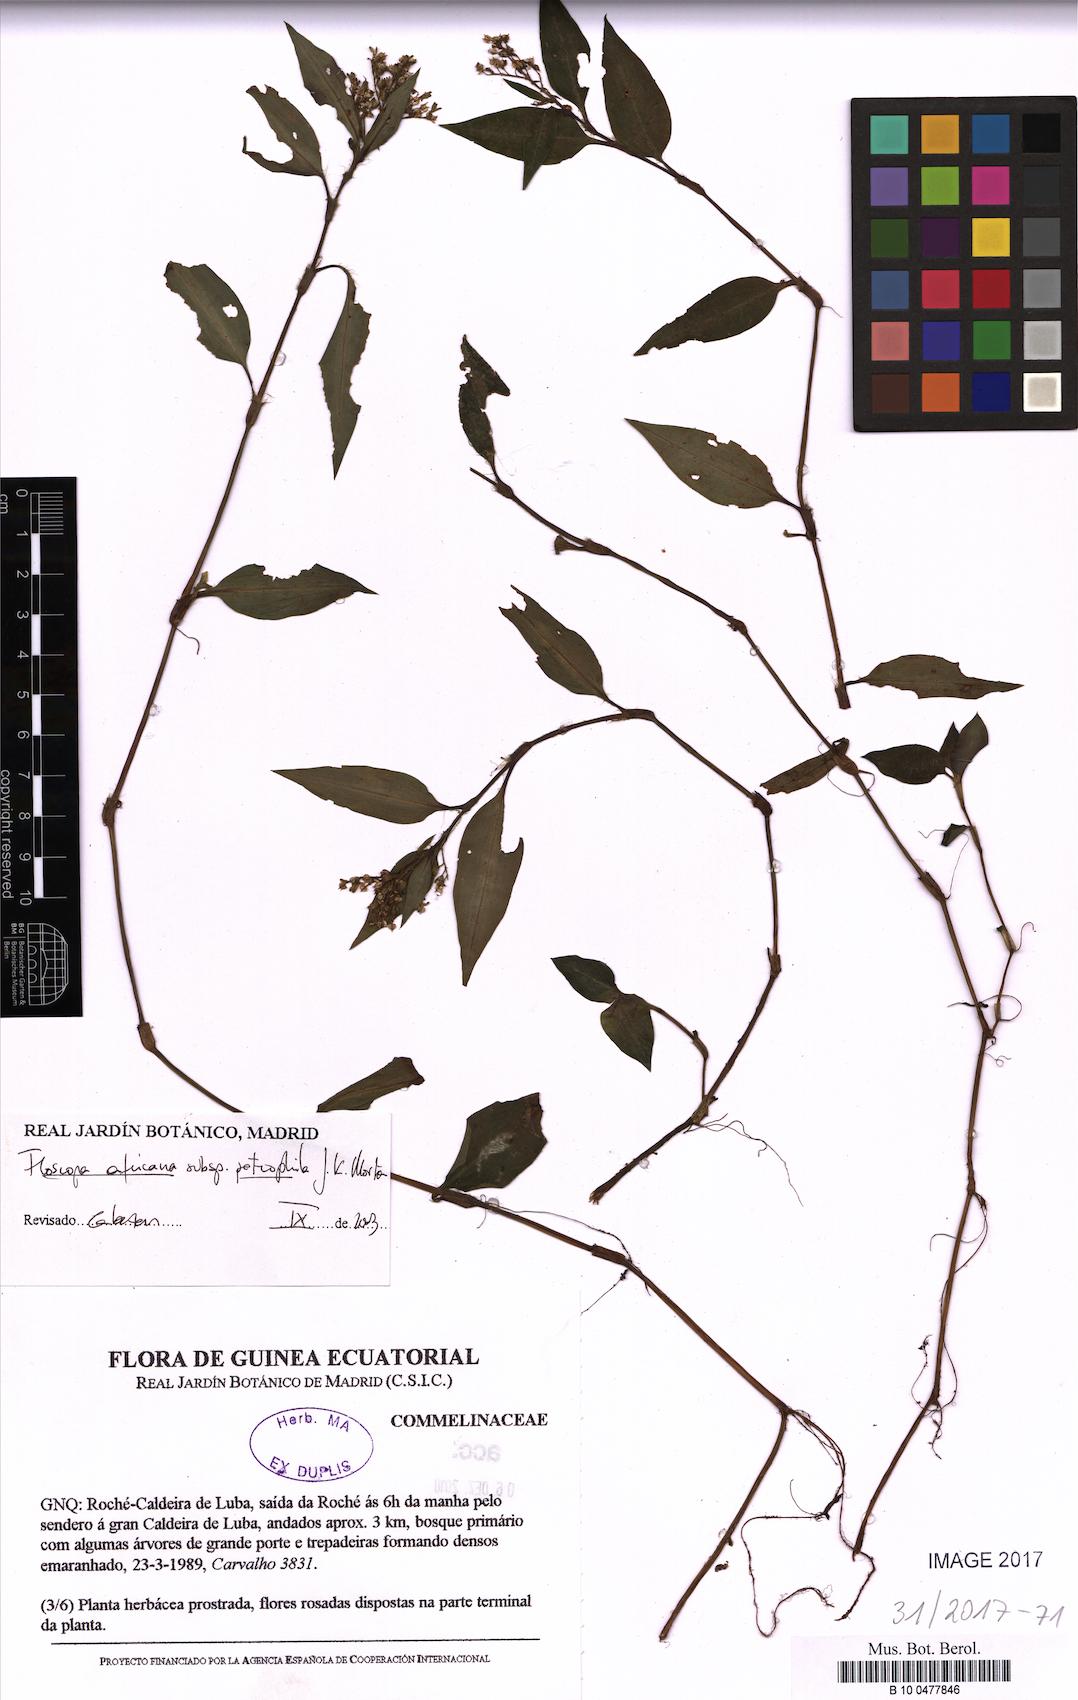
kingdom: Plantae
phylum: Tracheophyta
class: Liliopsida
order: Commelinales
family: Commelinaceae
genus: Floscopa
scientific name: Floscopa africana
